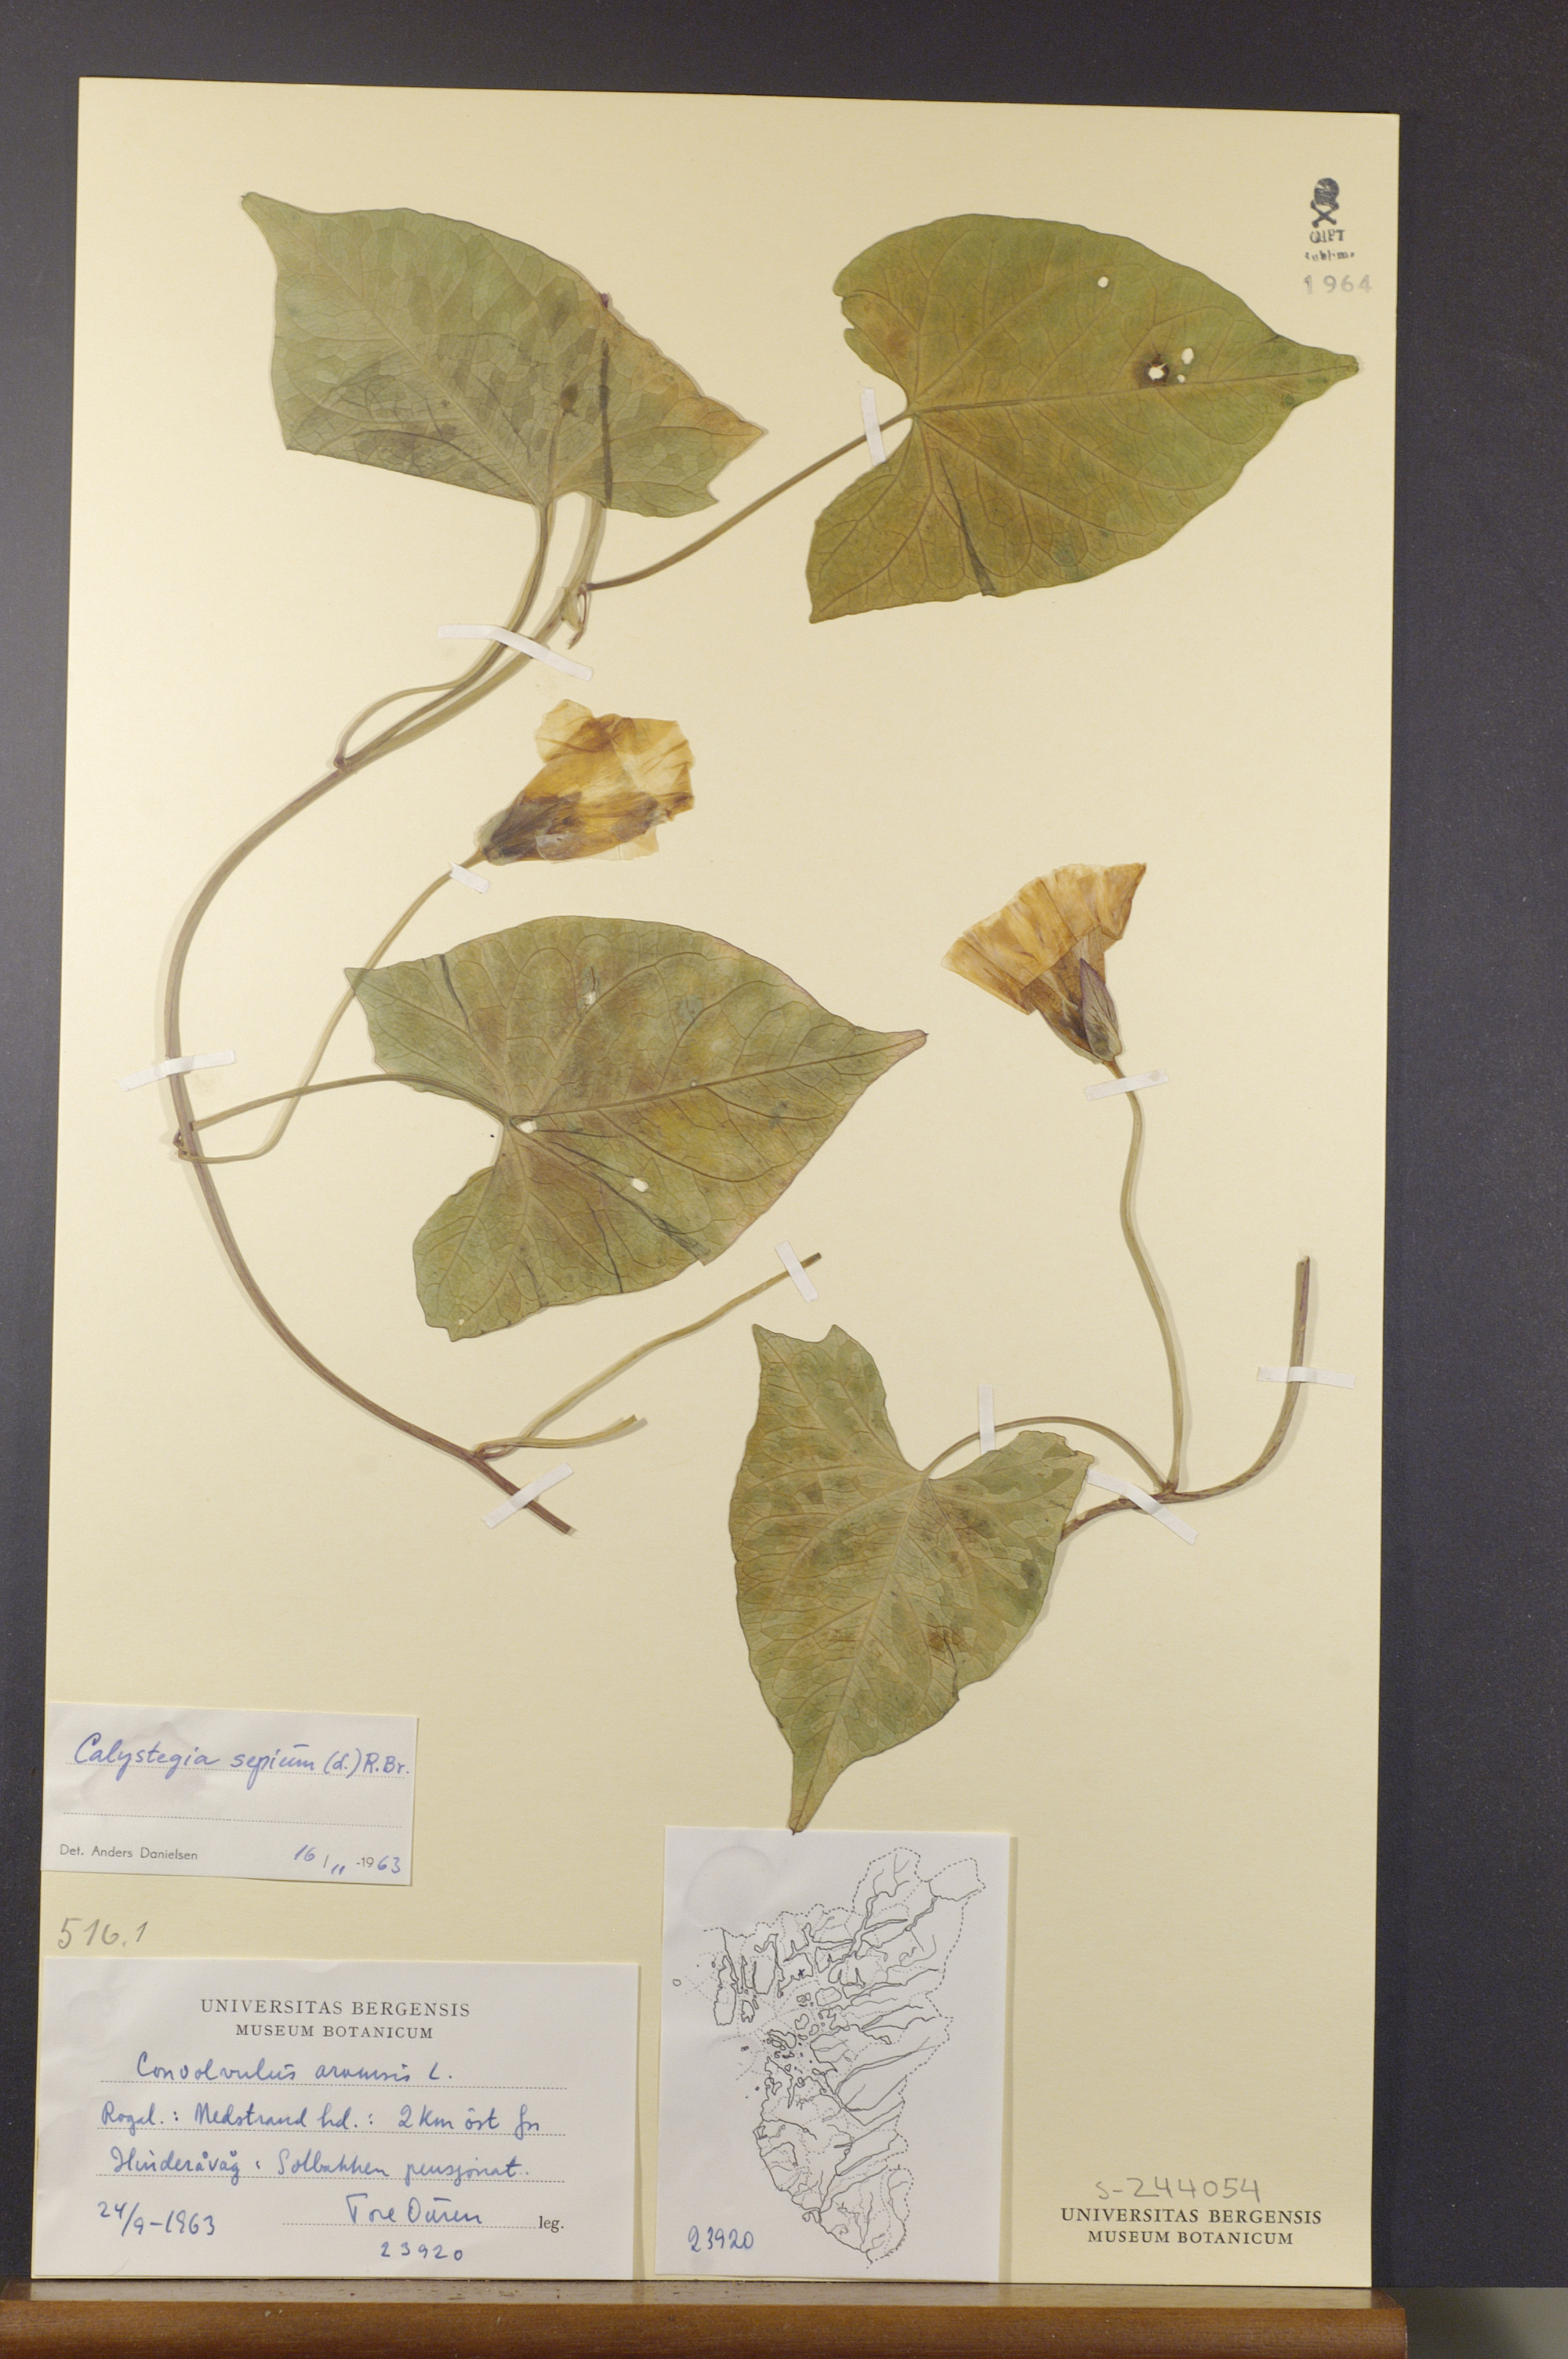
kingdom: Plantae
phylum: Tracheophyta
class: Magnoliopsida
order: Solanales
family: Convolvulaceae
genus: Calystegia
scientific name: Calystegia sepium
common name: Hedge bindweed
